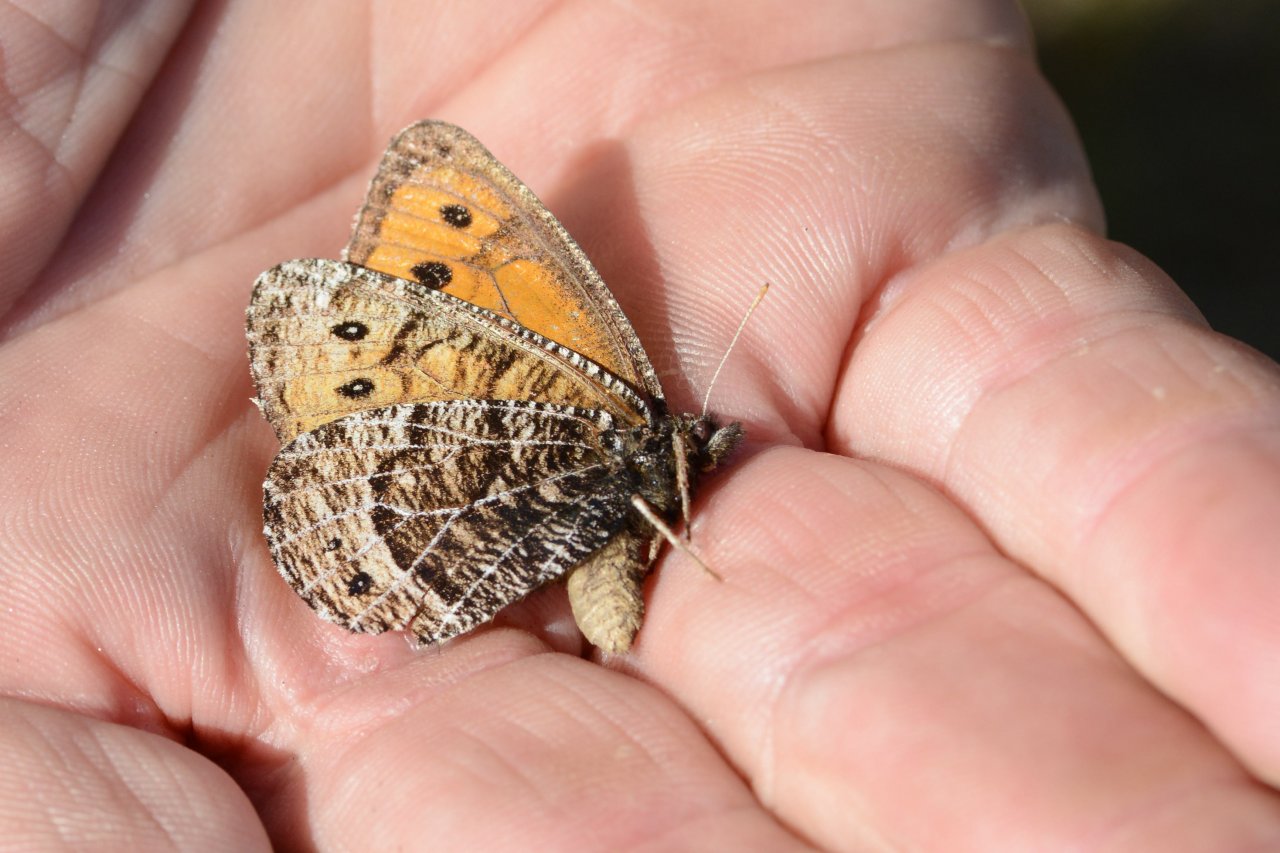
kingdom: Animalia
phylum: Arthropoda
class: Insecta
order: Lepidoptera
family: Nymphalidae
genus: Oeneis
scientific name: Oeneis chryxus
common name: Chryxus Arctic
